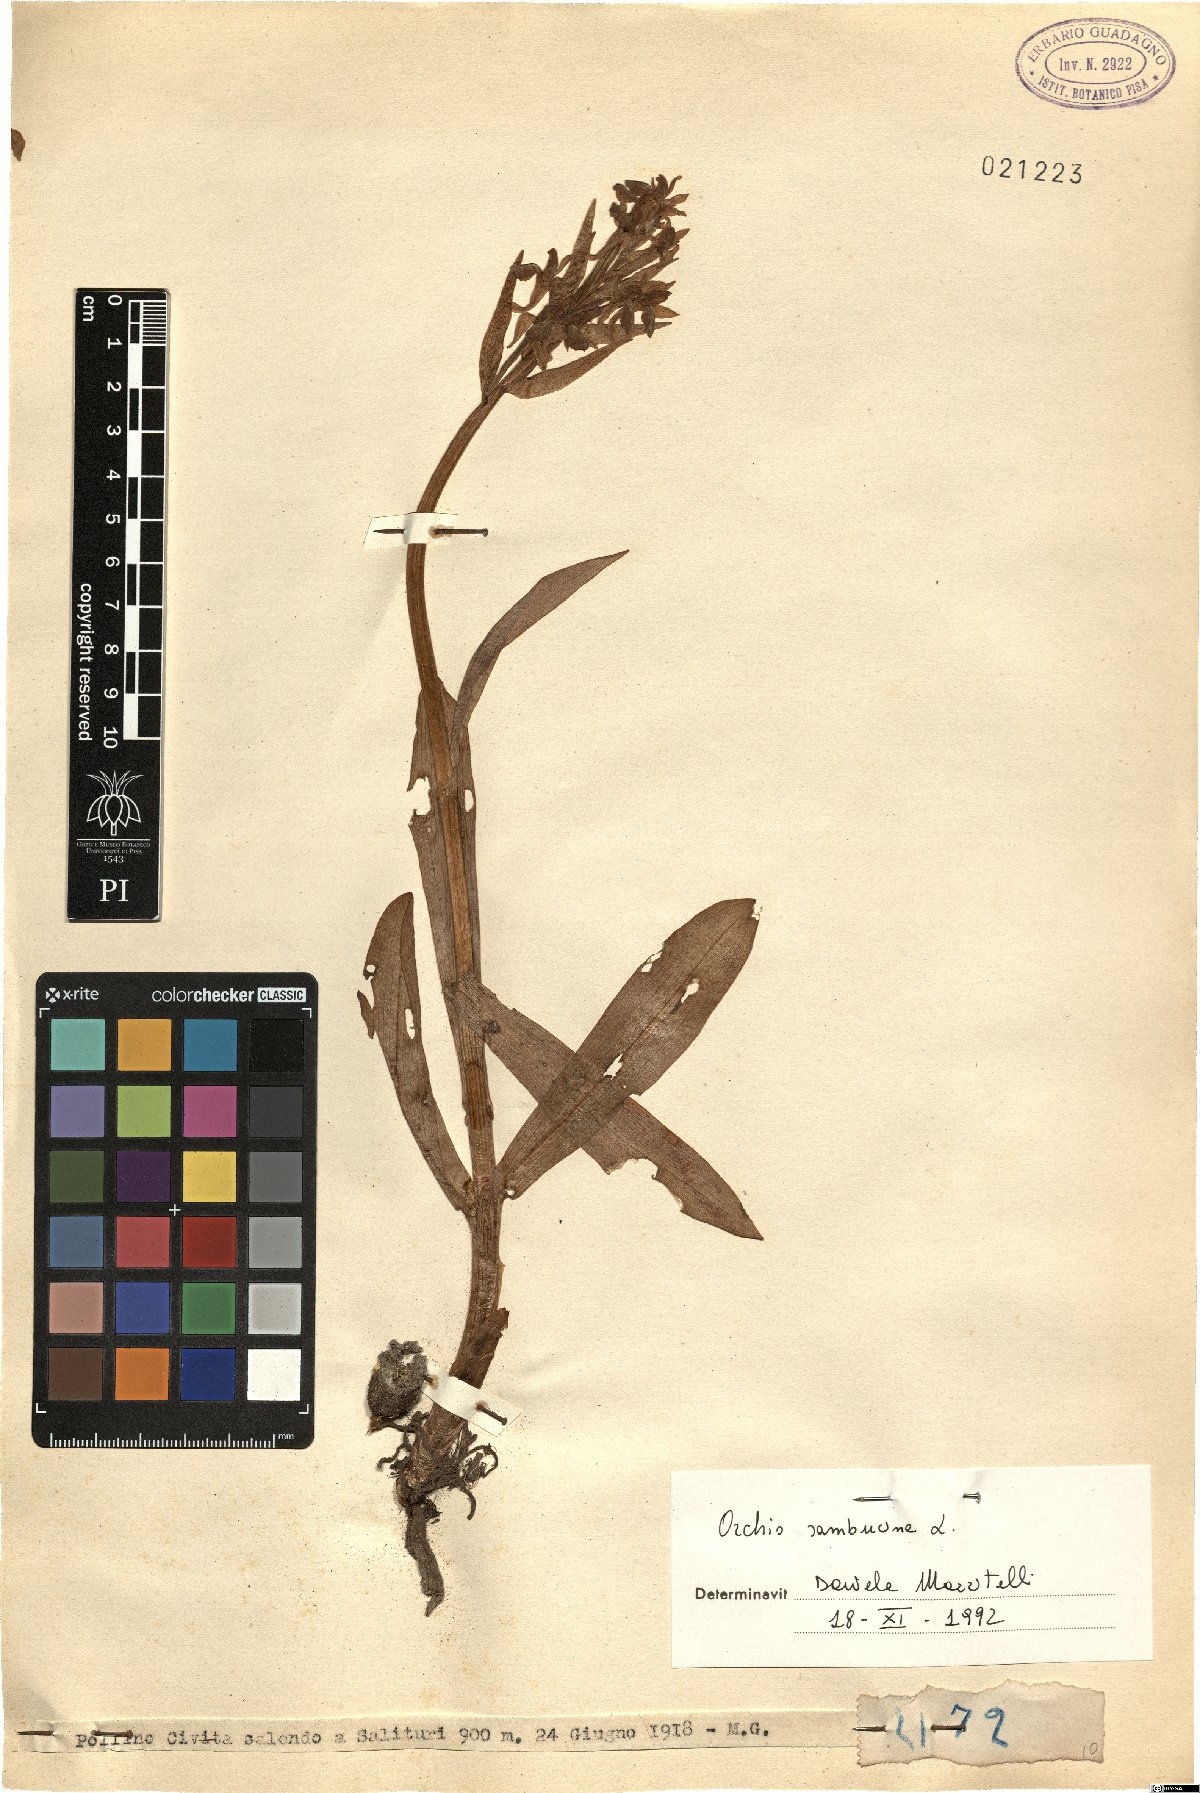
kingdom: Plantae
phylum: Tracheophyta
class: Liliopsida
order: Asparagales
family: Orchidaceae
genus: Dactylorhiza
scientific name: Dactylorhiza sambucina
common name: Elder-flowered orchid
